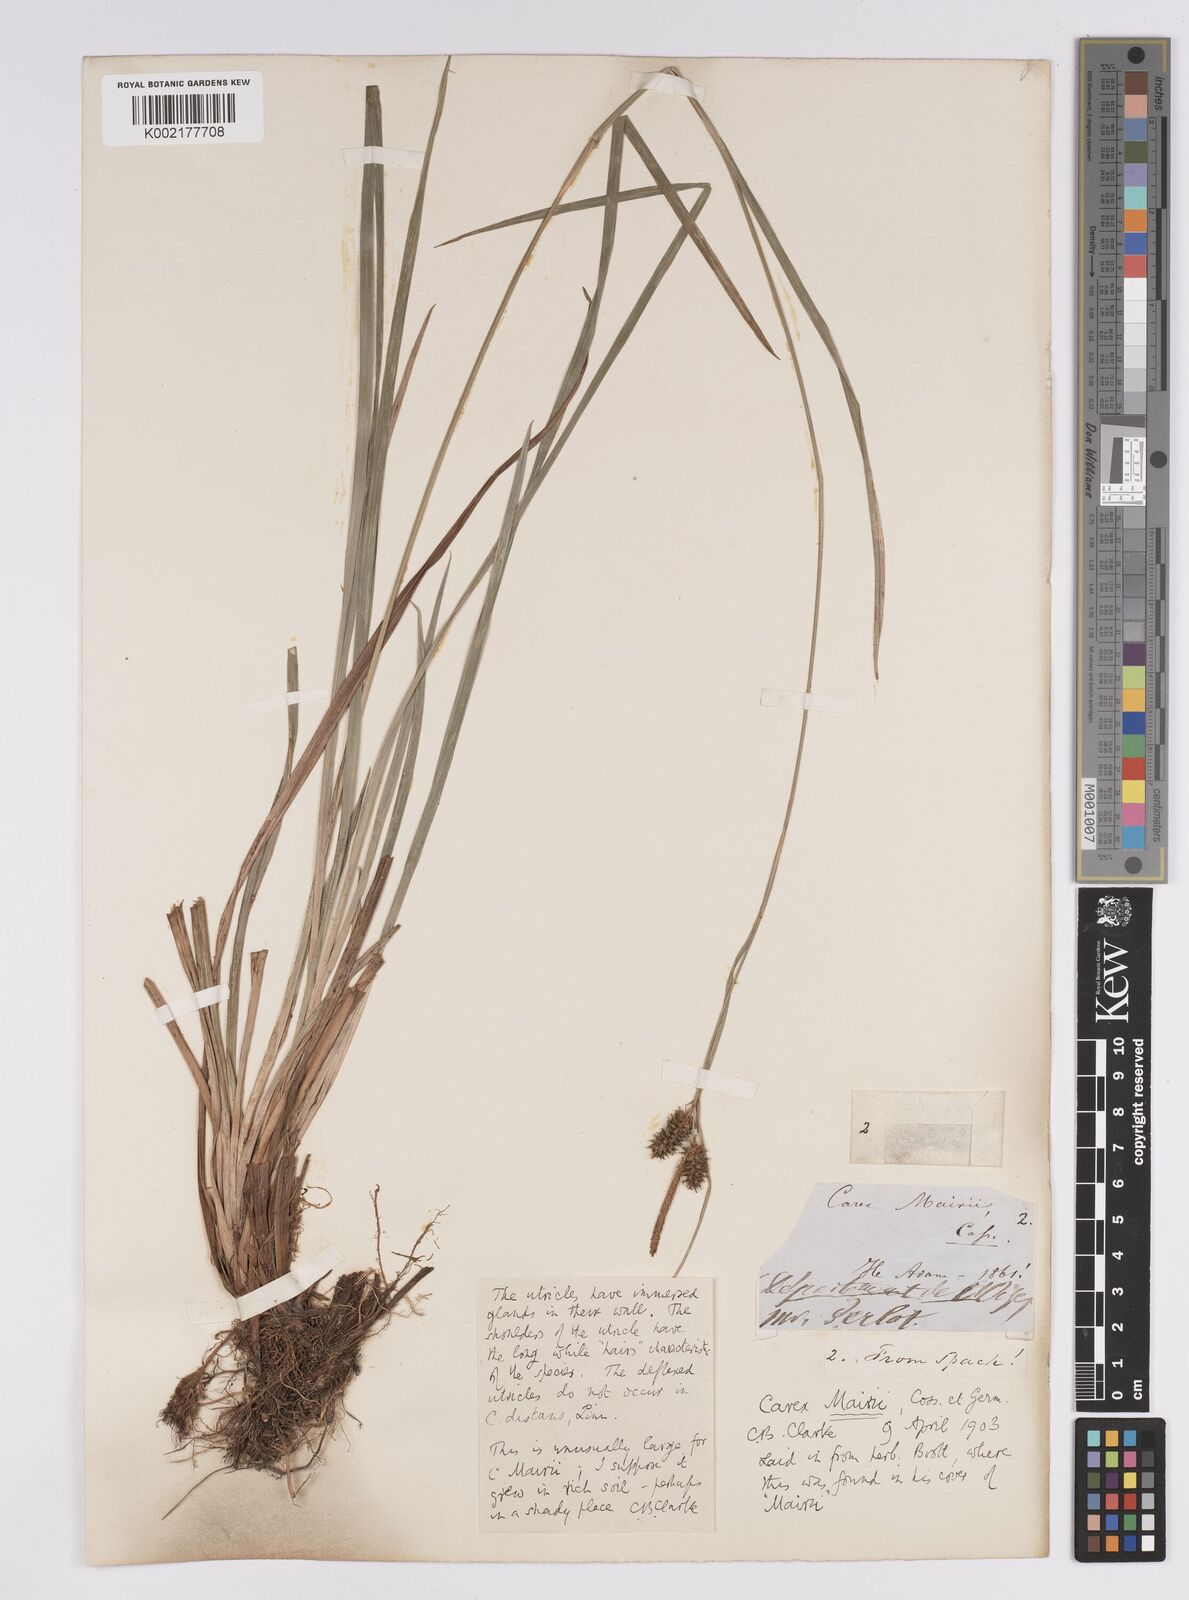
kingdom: Plantae
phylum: Tracheophyta
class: Liliopsida
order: Poales
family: Cyperaceae
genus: Carex
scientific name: Carex mairei
